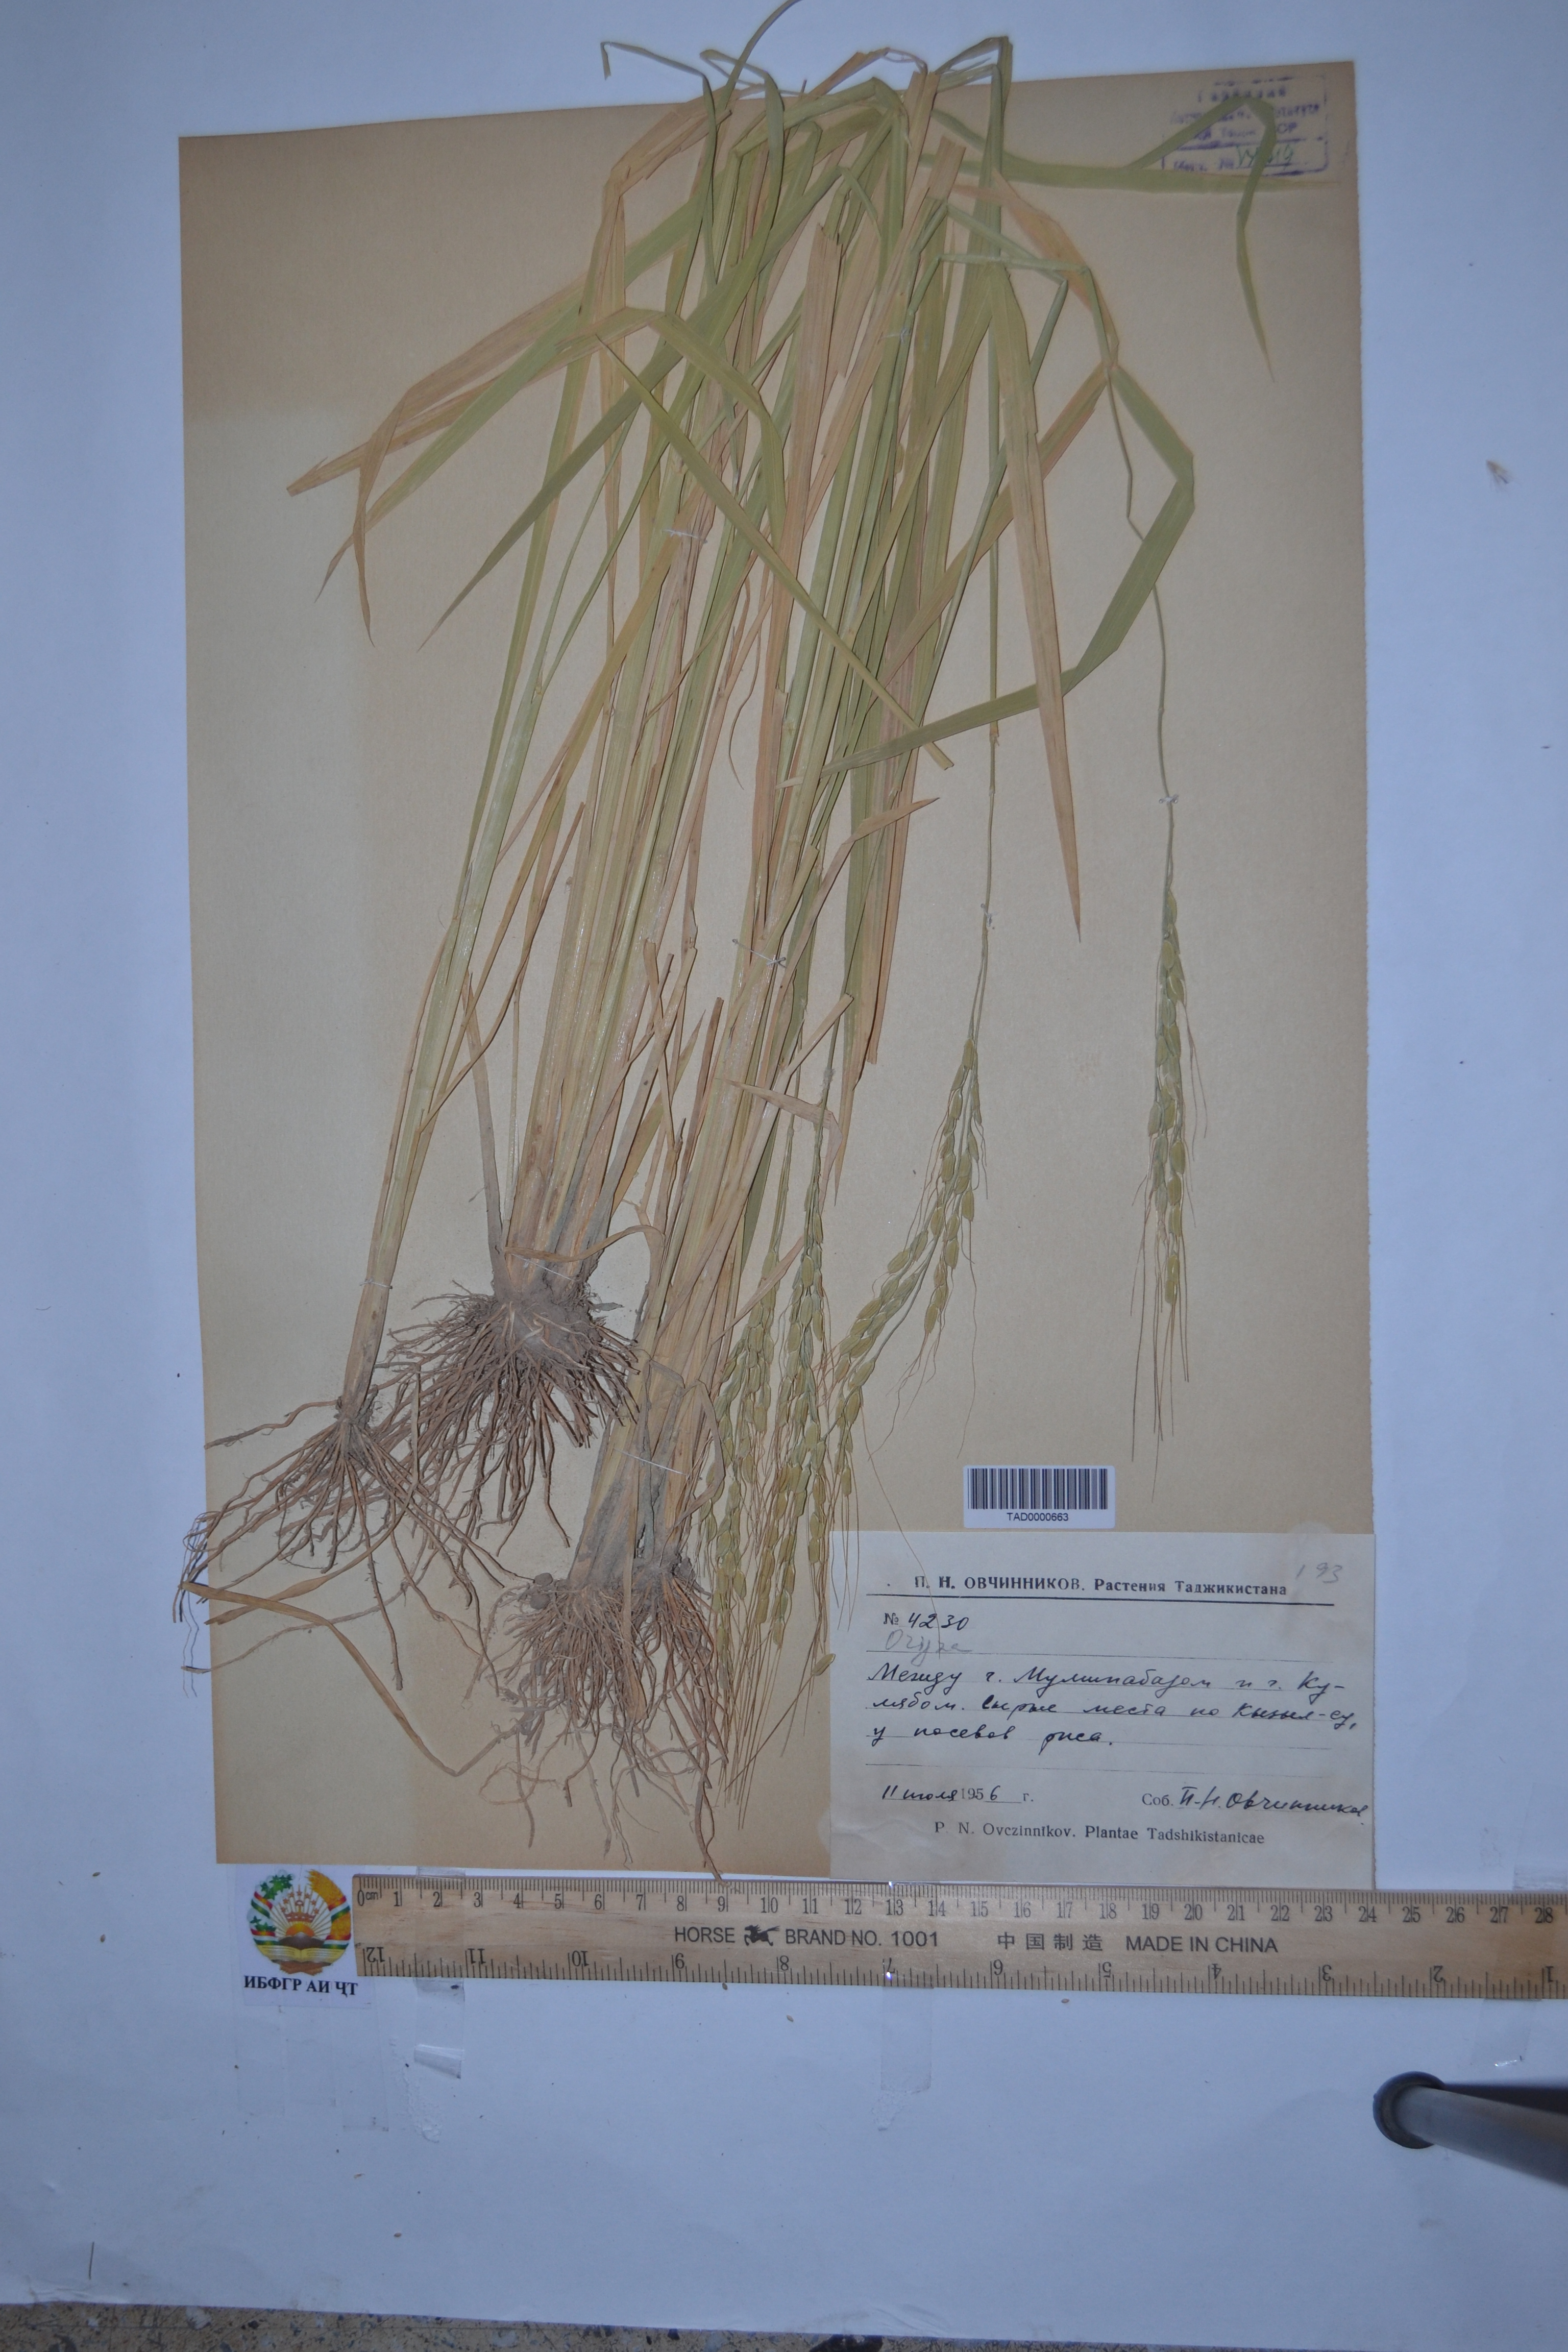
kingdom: Plantae
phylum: Tracheophyta
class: Liliopsida
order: Poales
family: Poaceae
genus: Oryza
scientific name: Oryza sativa
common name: Rice
